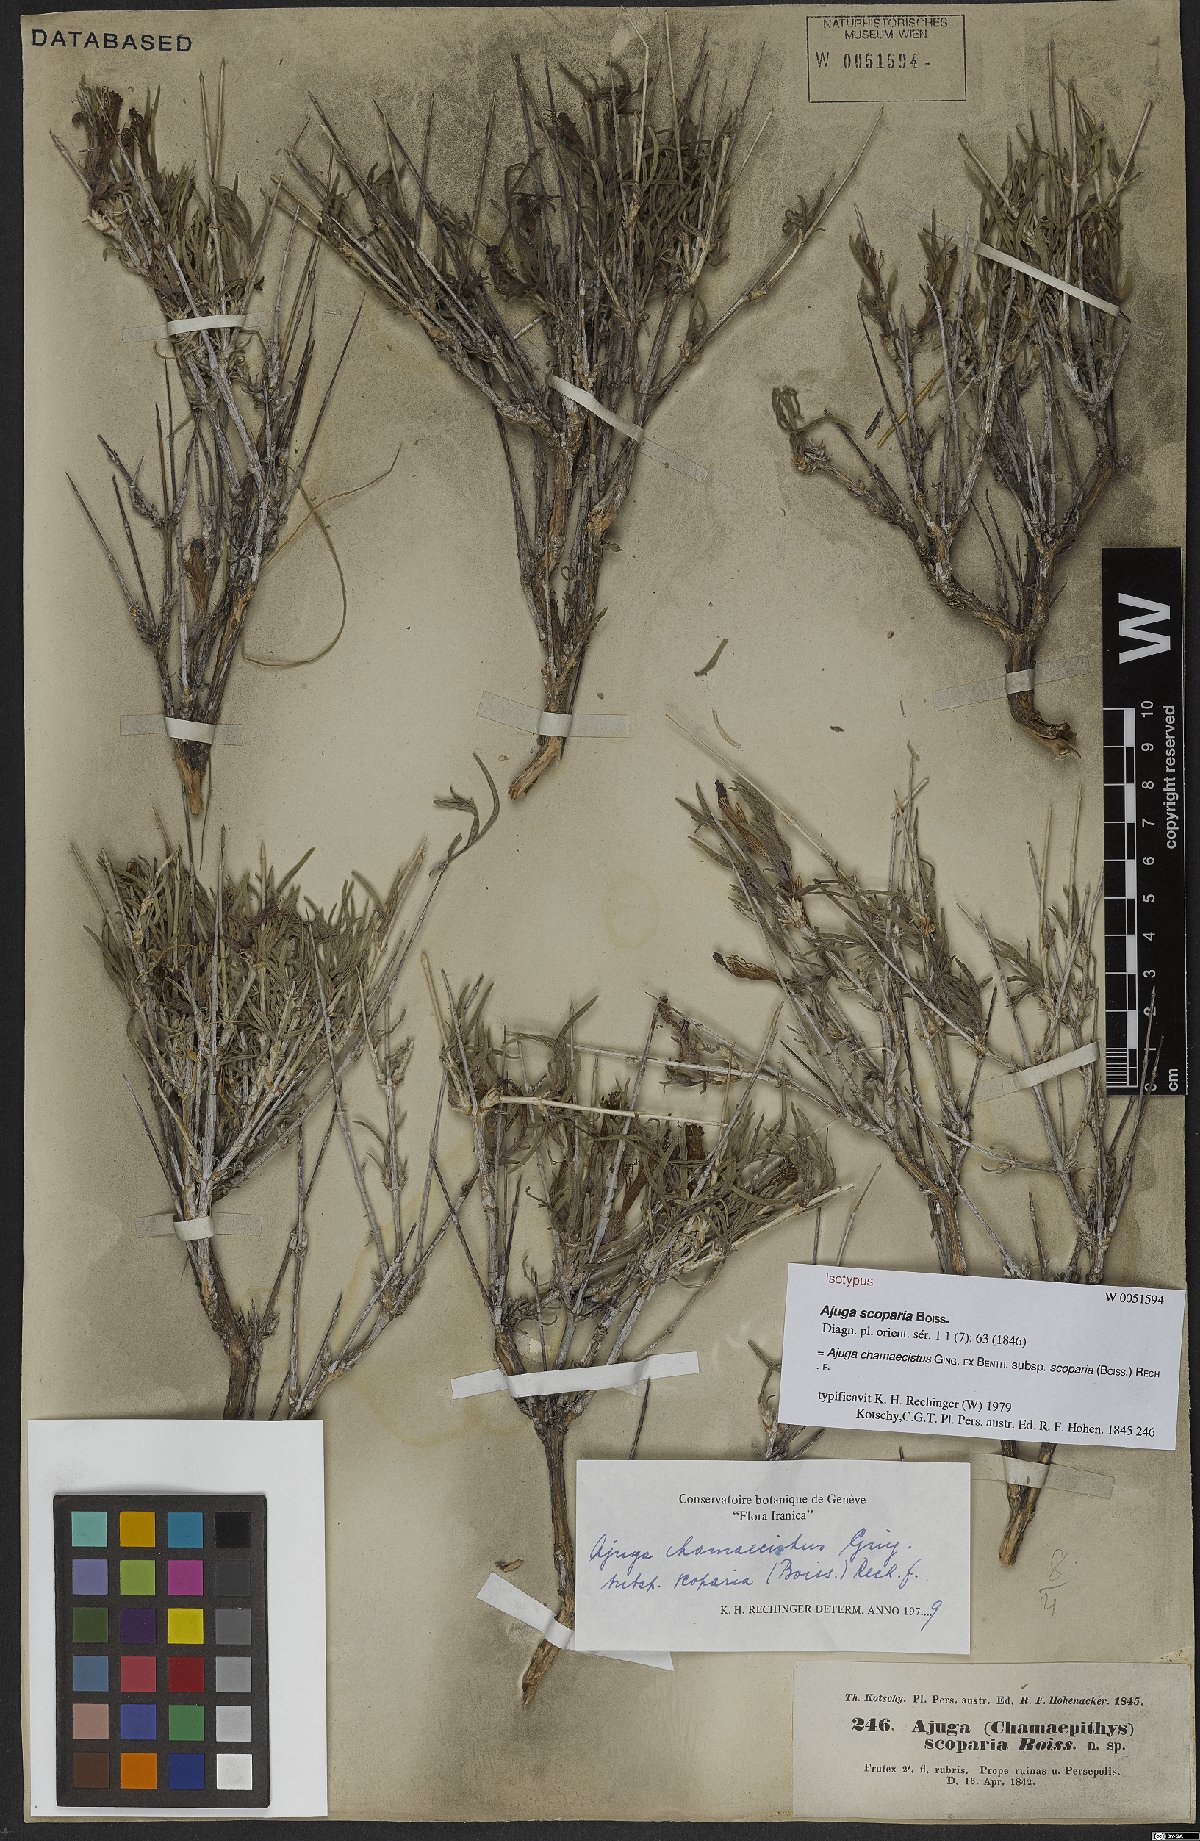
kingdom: Plantae
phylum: Tracheophyta
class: Magnoliopsida
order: Lamiales
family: Lamiaceae
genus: Ajuga
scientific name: Ajuga chamaecistus
